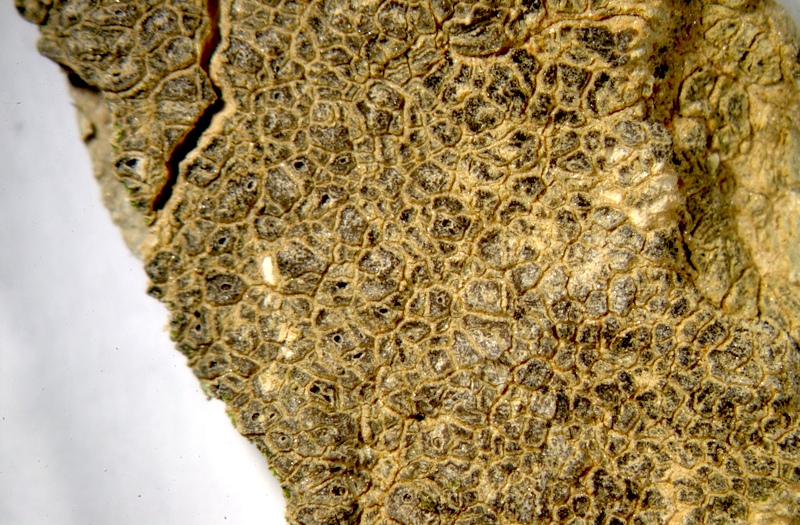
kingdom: Fungi
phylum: Ascomycota
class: Lecanoromycetes
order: Caliciales
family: Physciaceae
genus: Physcia
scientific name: Physcia
